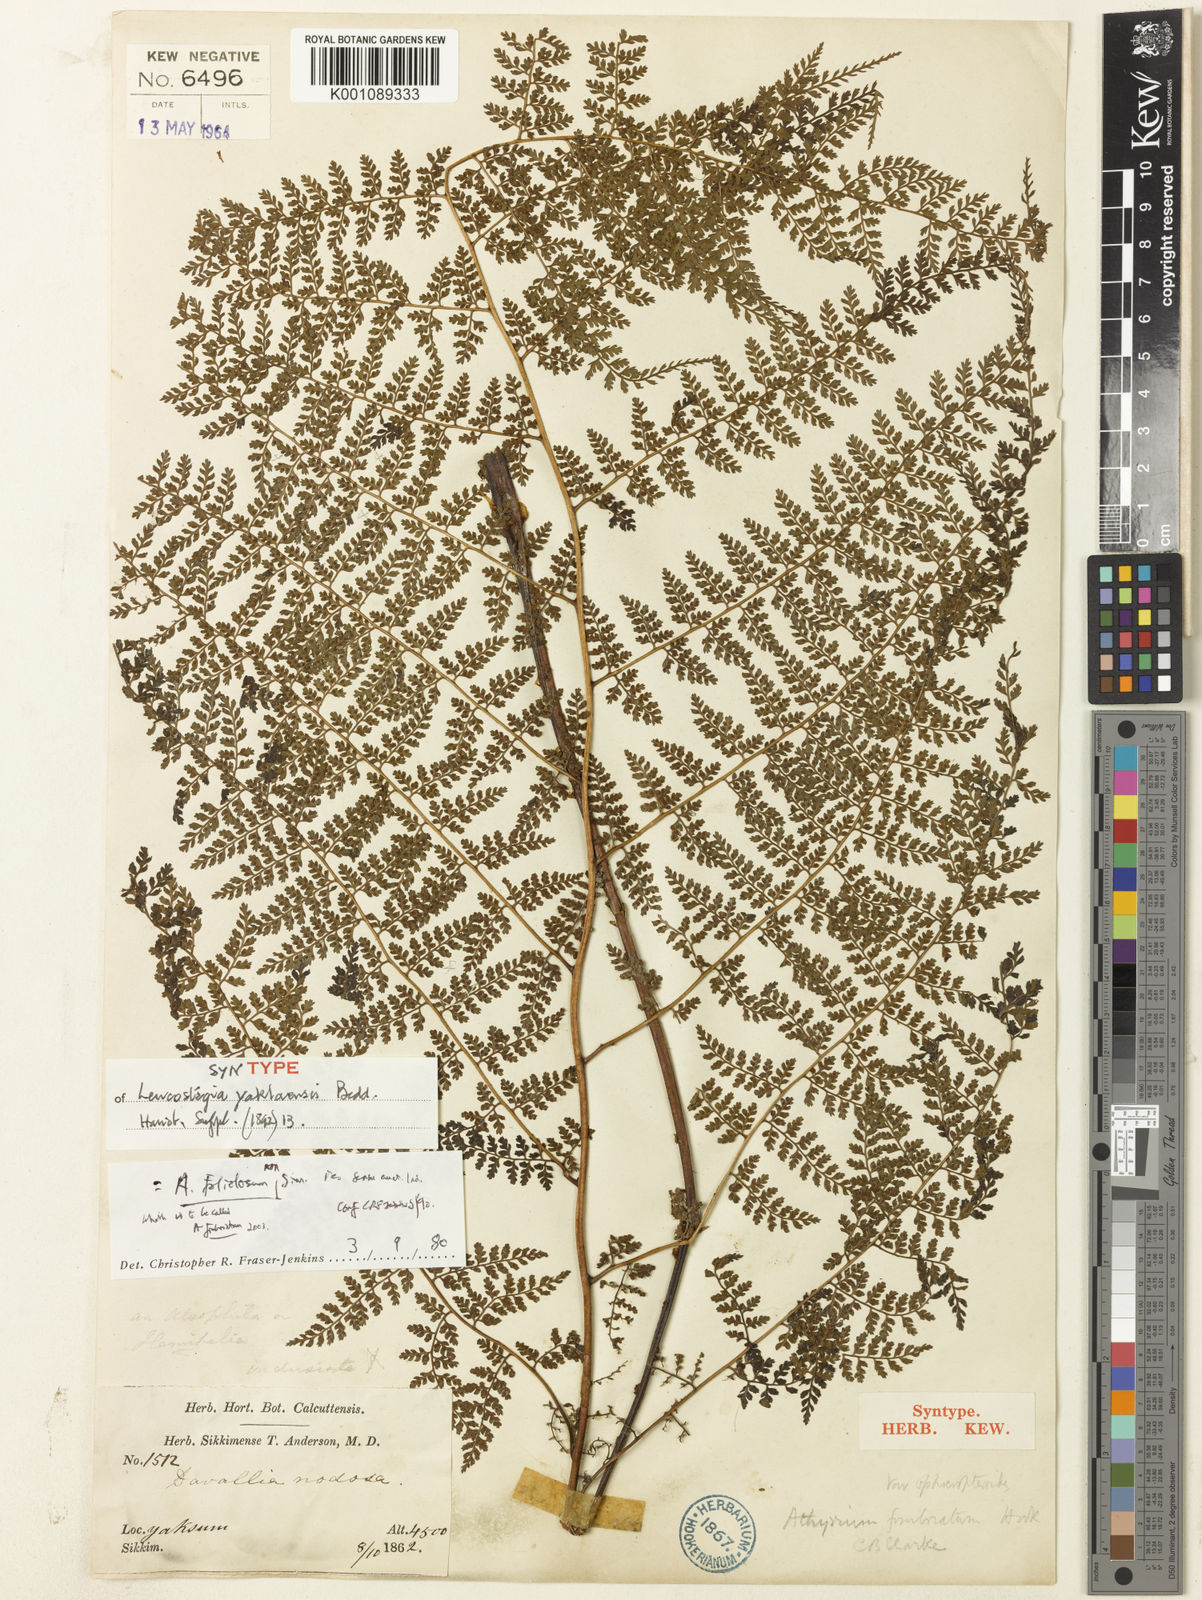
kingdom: Plantae
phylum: Tracheophyta
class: Polypodiopsida
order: Polypodiales
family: Athyriaceae
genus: Athyrium
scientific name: Athyrium
